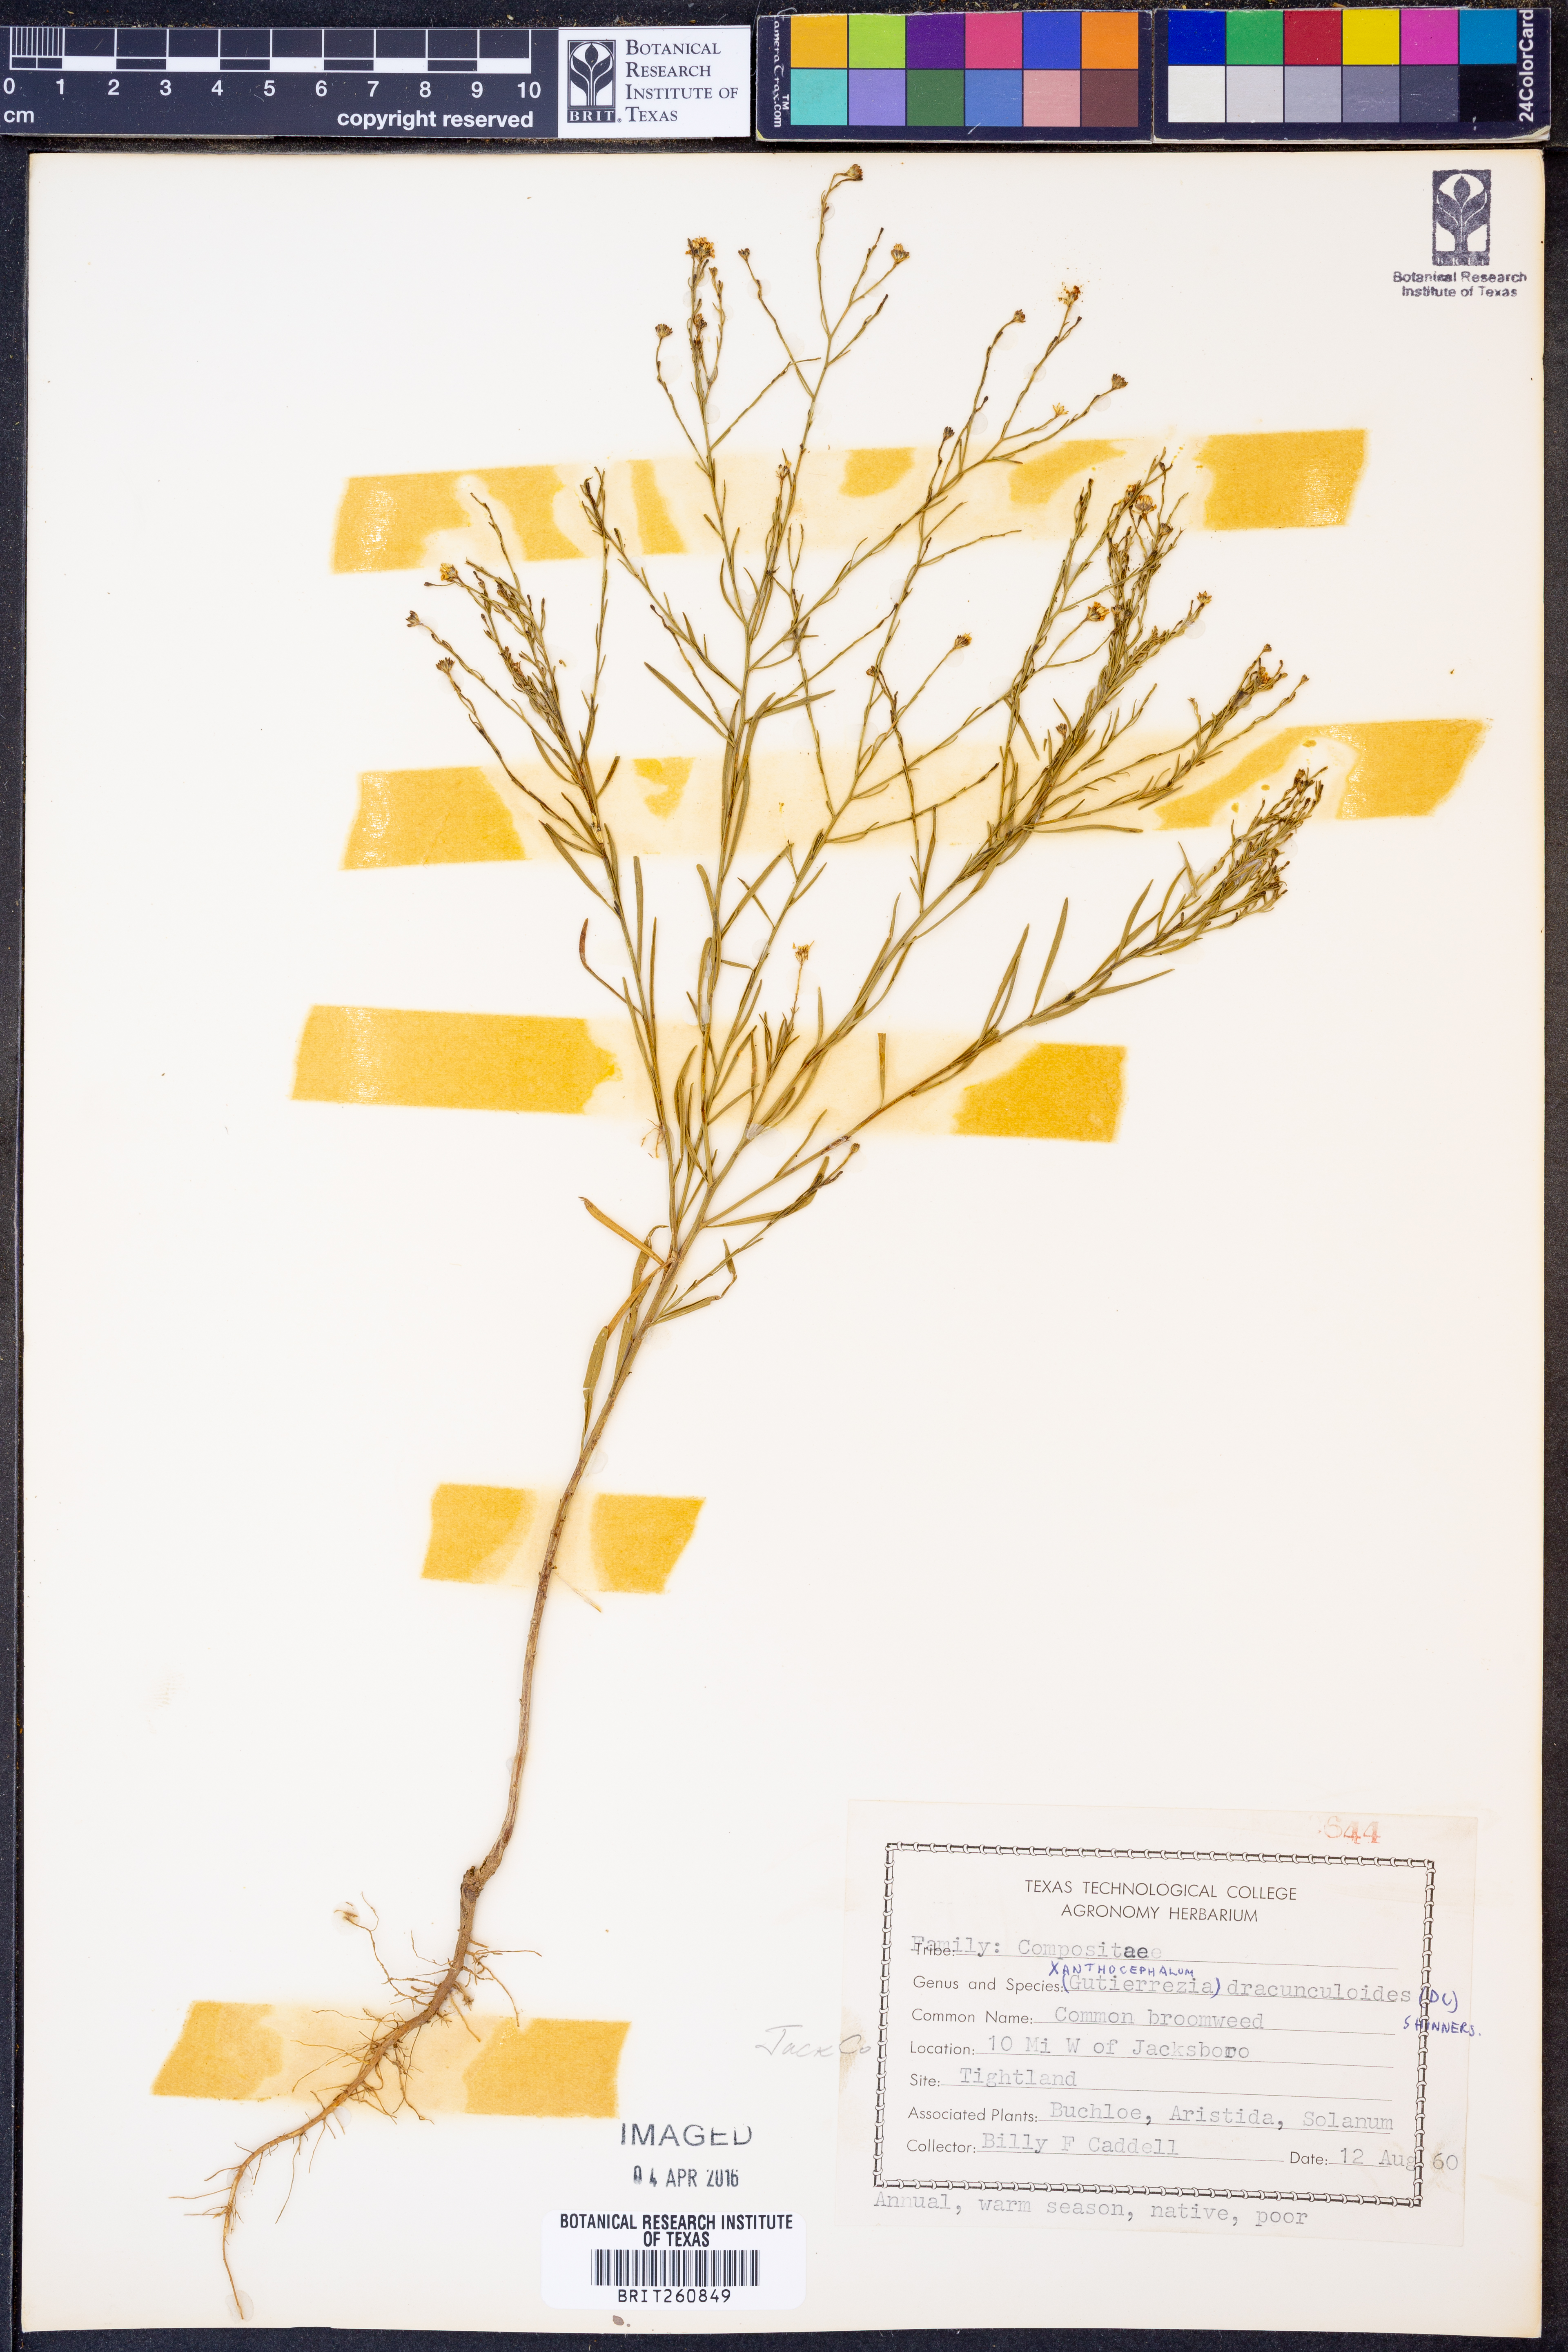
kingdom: Plantae
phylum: Tracheophyta
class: Magnoliopsida
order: Asterales
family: Asteraceae
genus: Amphiachyris
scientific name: Amphiachyris dracunculoides
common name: Broomweed
